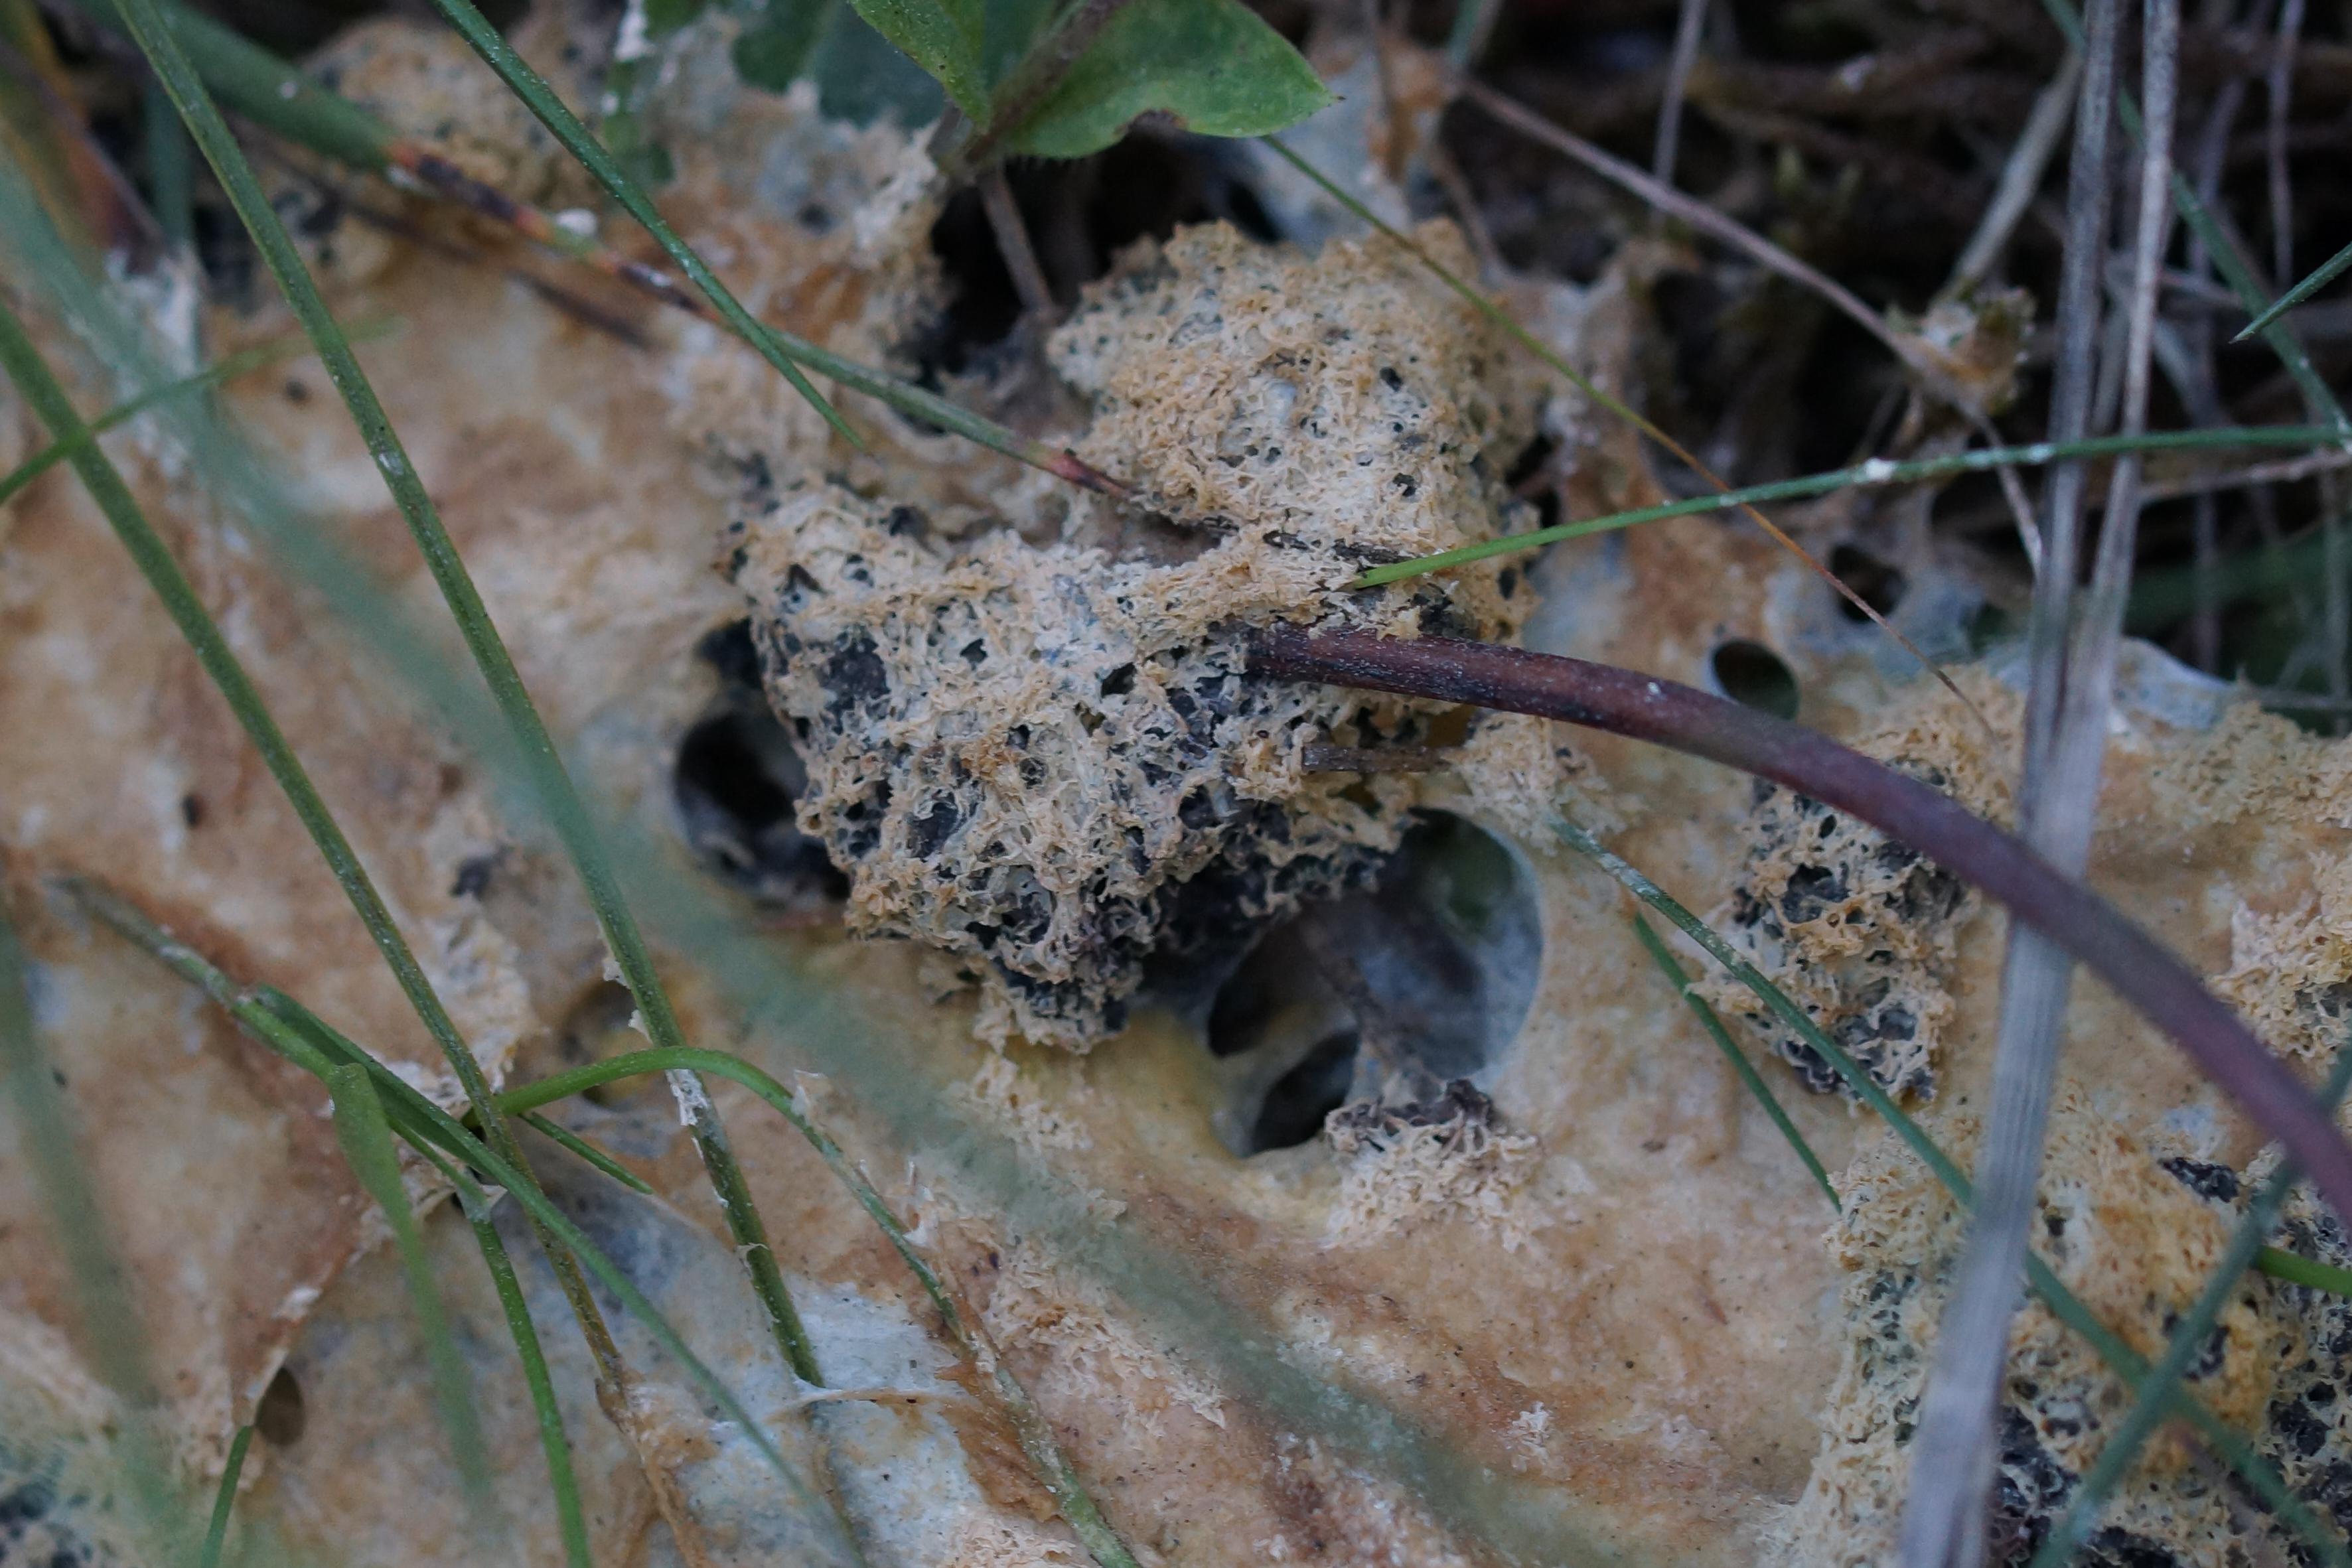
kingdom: Protozoa
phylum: Mycetozoa
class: Myxomycetes
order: Physarales
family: Physaraceae
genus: Fuligo
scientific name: Fuligo
